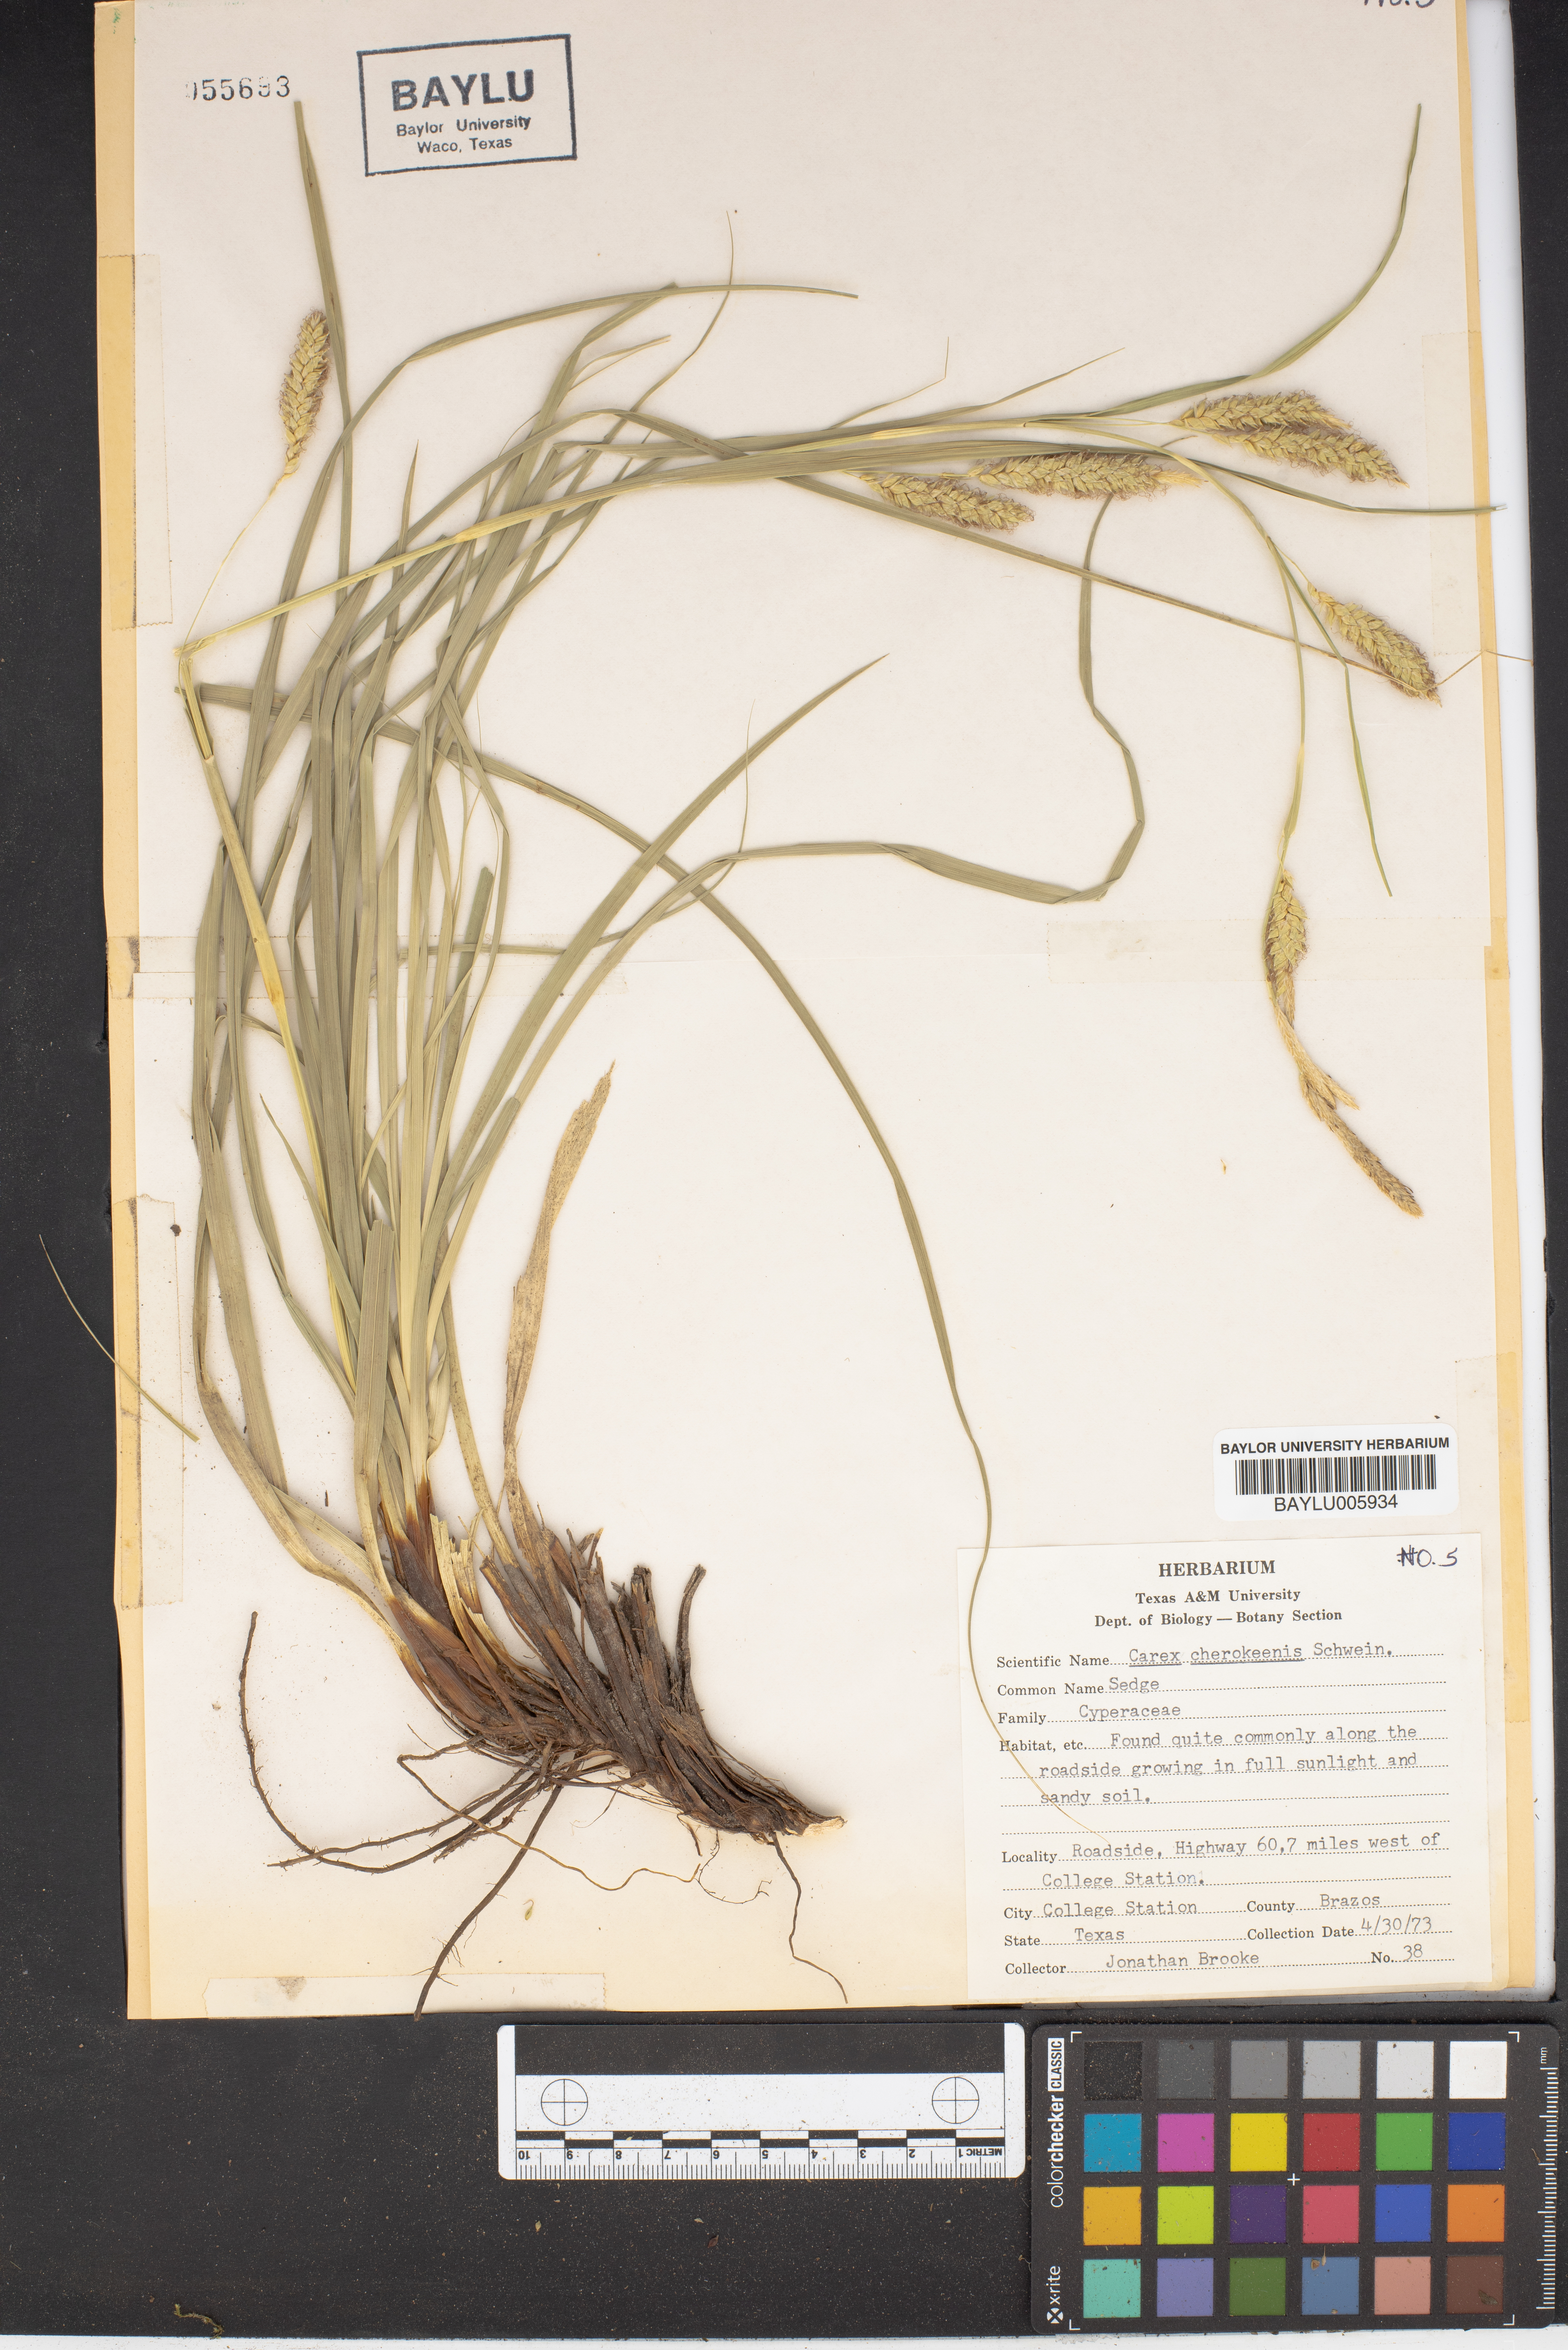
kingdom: Plantae
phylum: Tracheophyta
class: Liliopsida
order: Poales
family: Cyperaceae
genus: Carex
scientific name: Carex cherokeensis
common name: Cherokee sedge
